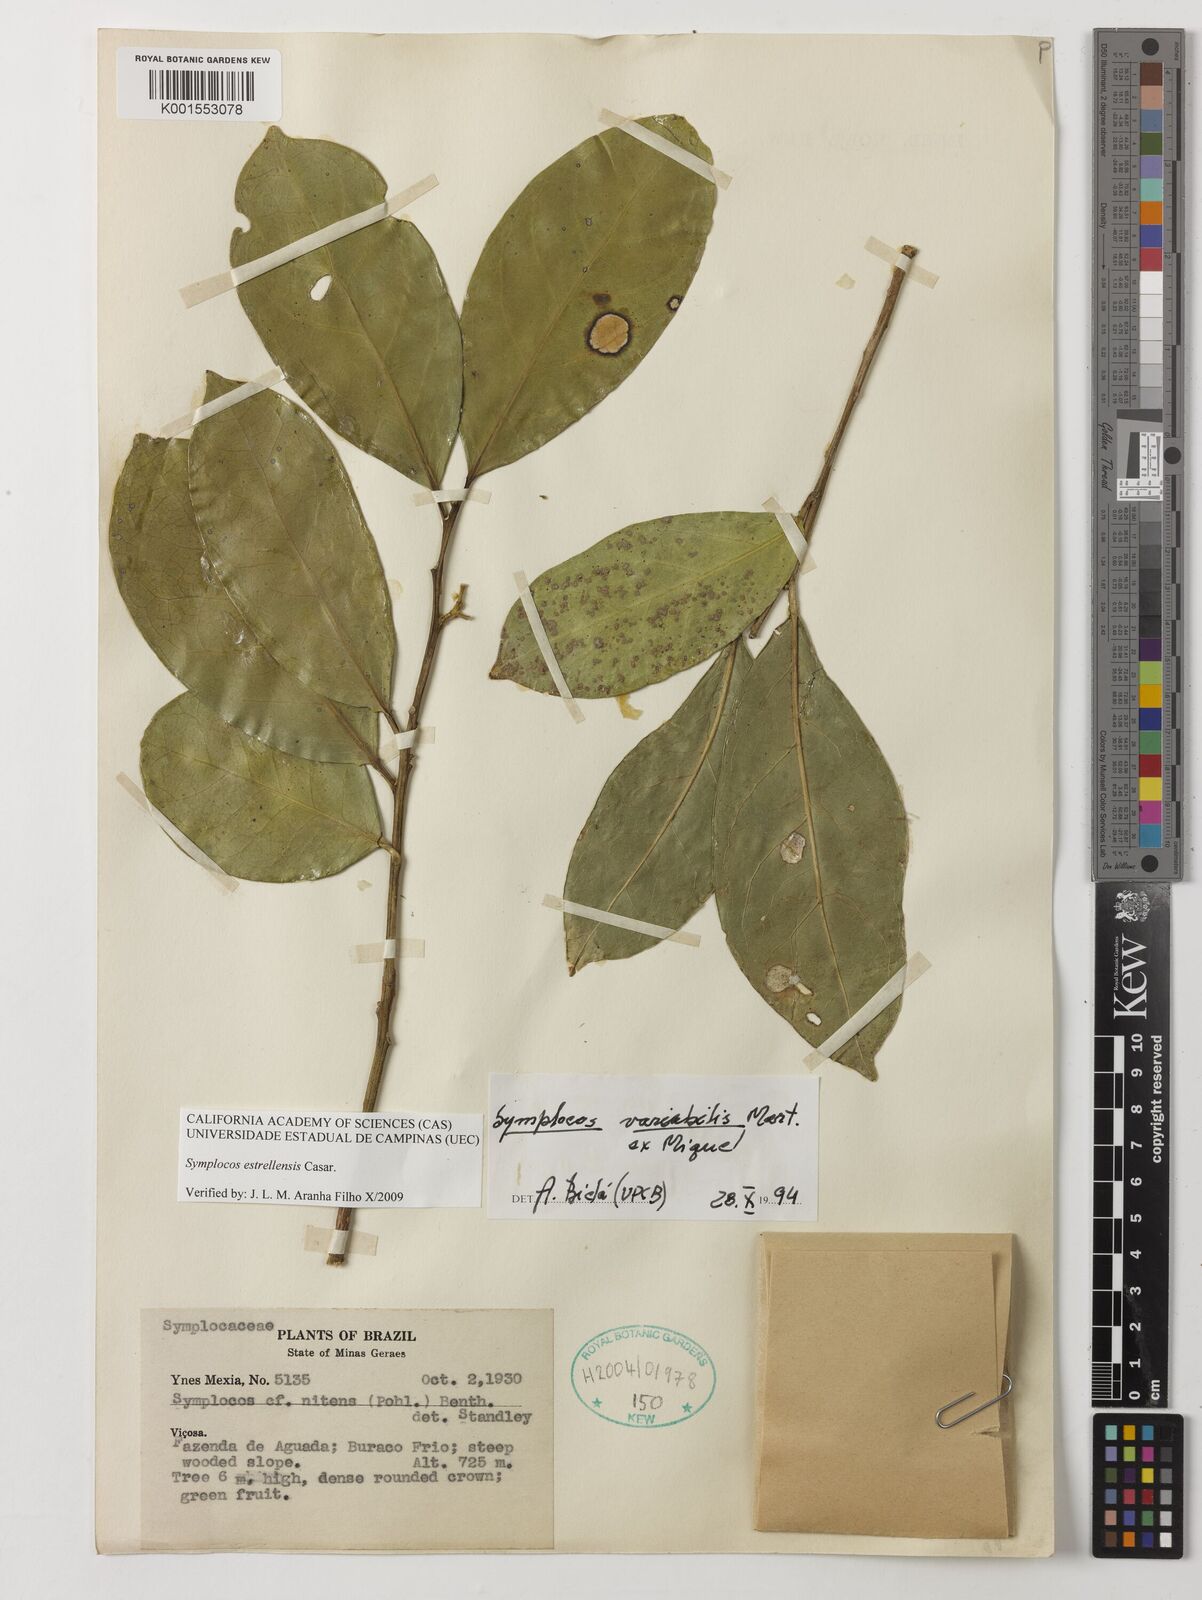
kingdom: Plantae
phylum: Tracheophyta
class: Magnoliopsida
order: Ericales
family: Symplocaceae
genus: Symplocos
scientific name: Symplocos estrellensis
